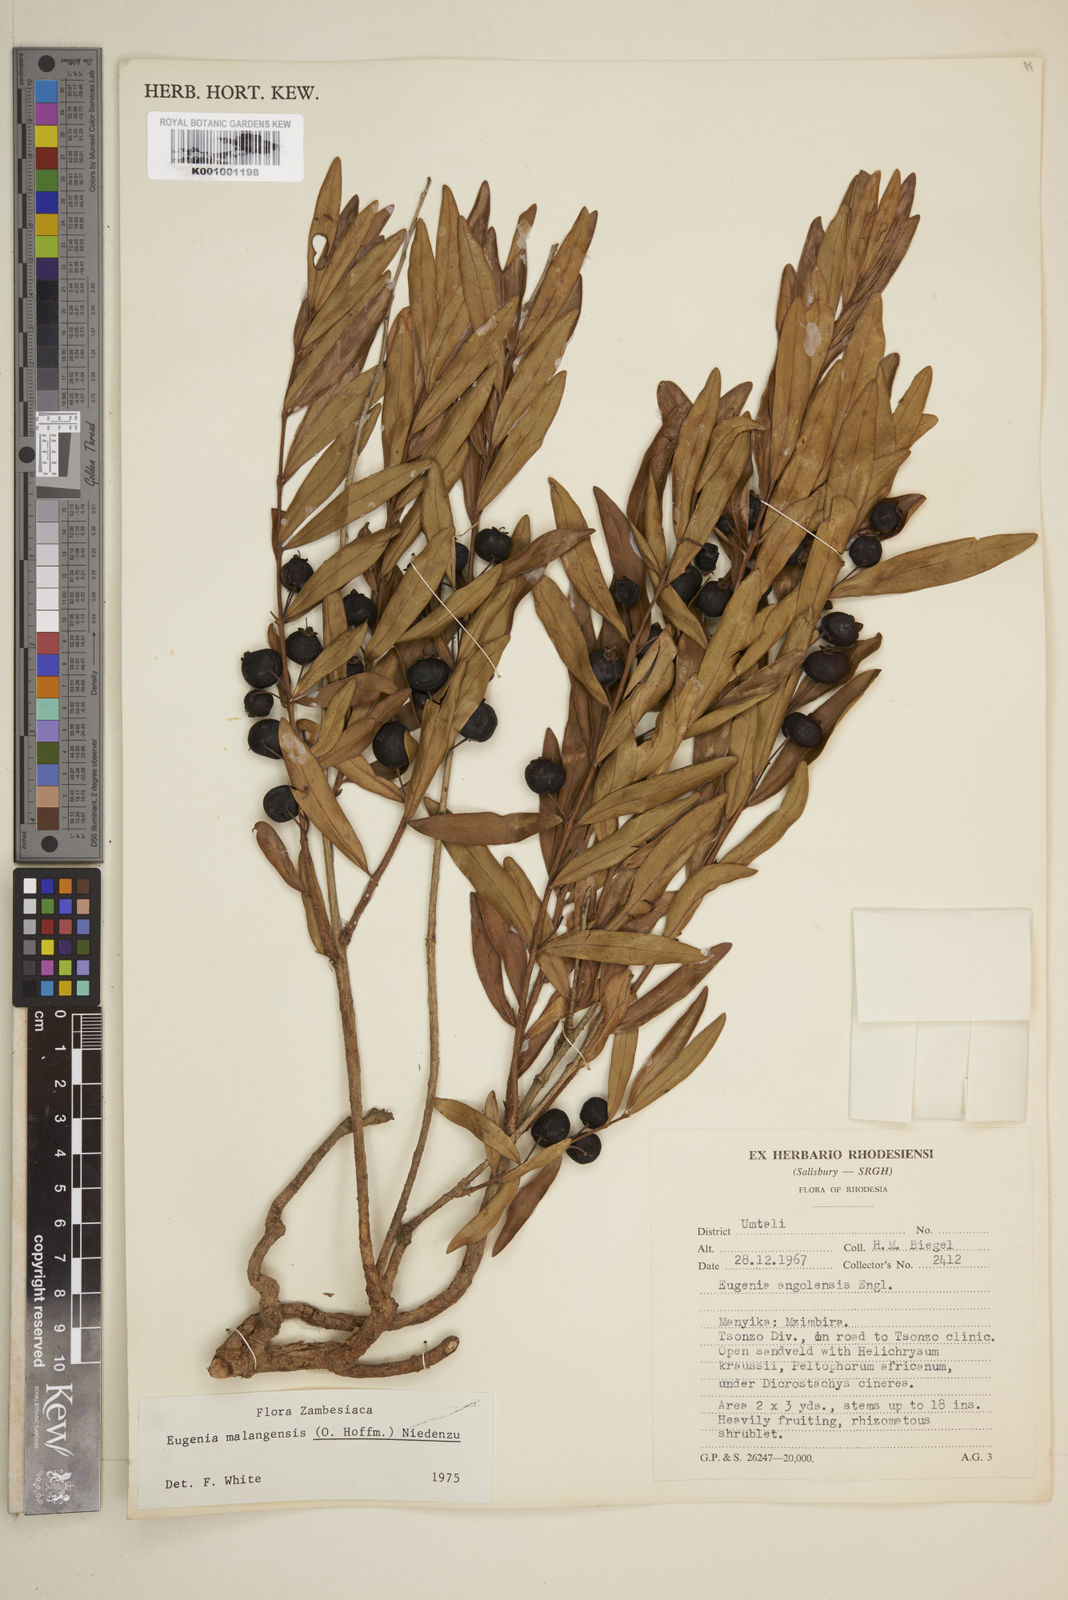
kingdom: Plantae
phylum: Tracheophyta
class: Magnoliopsida
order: Myrtales
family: Myrtaceae
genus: Eugenia
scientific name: Eugenia malangensis
